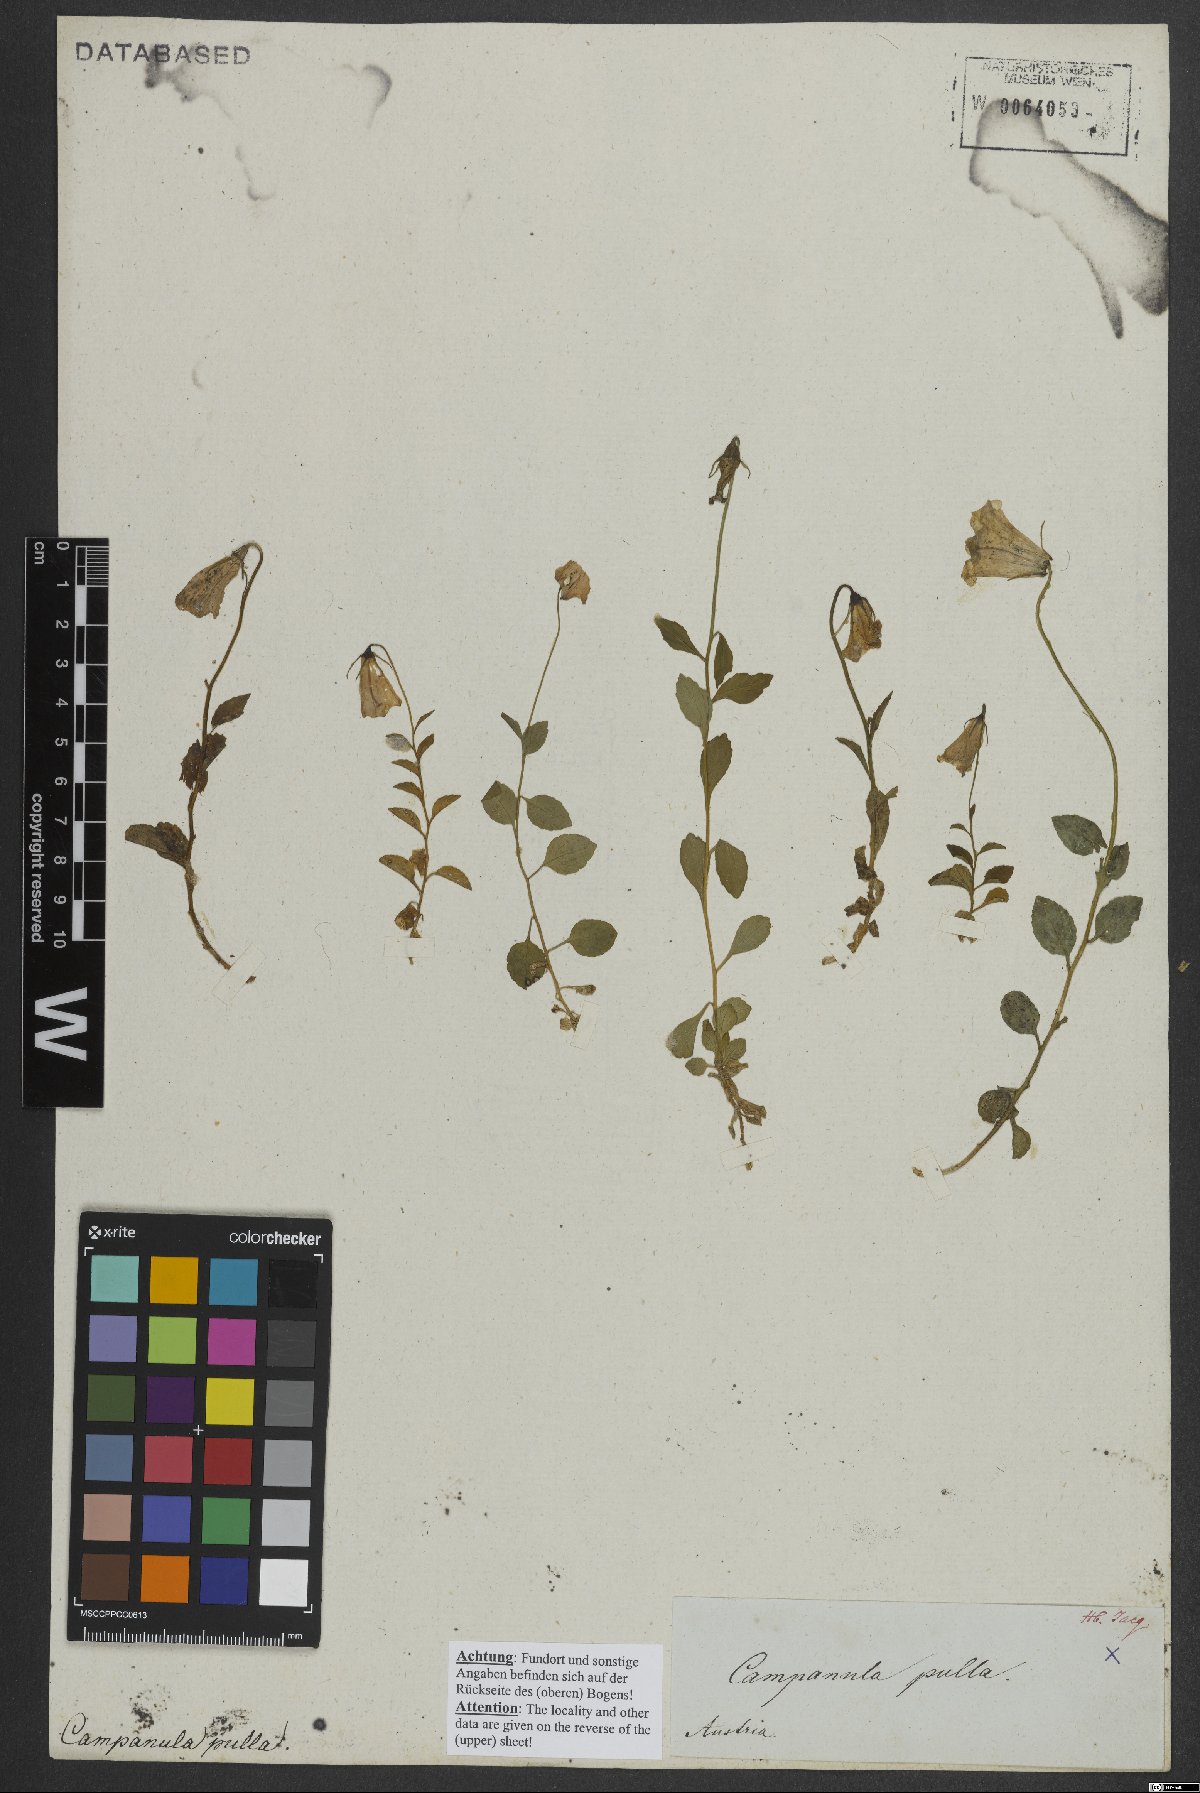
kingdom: Plantae
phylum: Tracheophyta
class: Magnoliopsida
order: Asterales
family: Campanulaceae
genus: Campanula
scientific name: Campanula pulla
